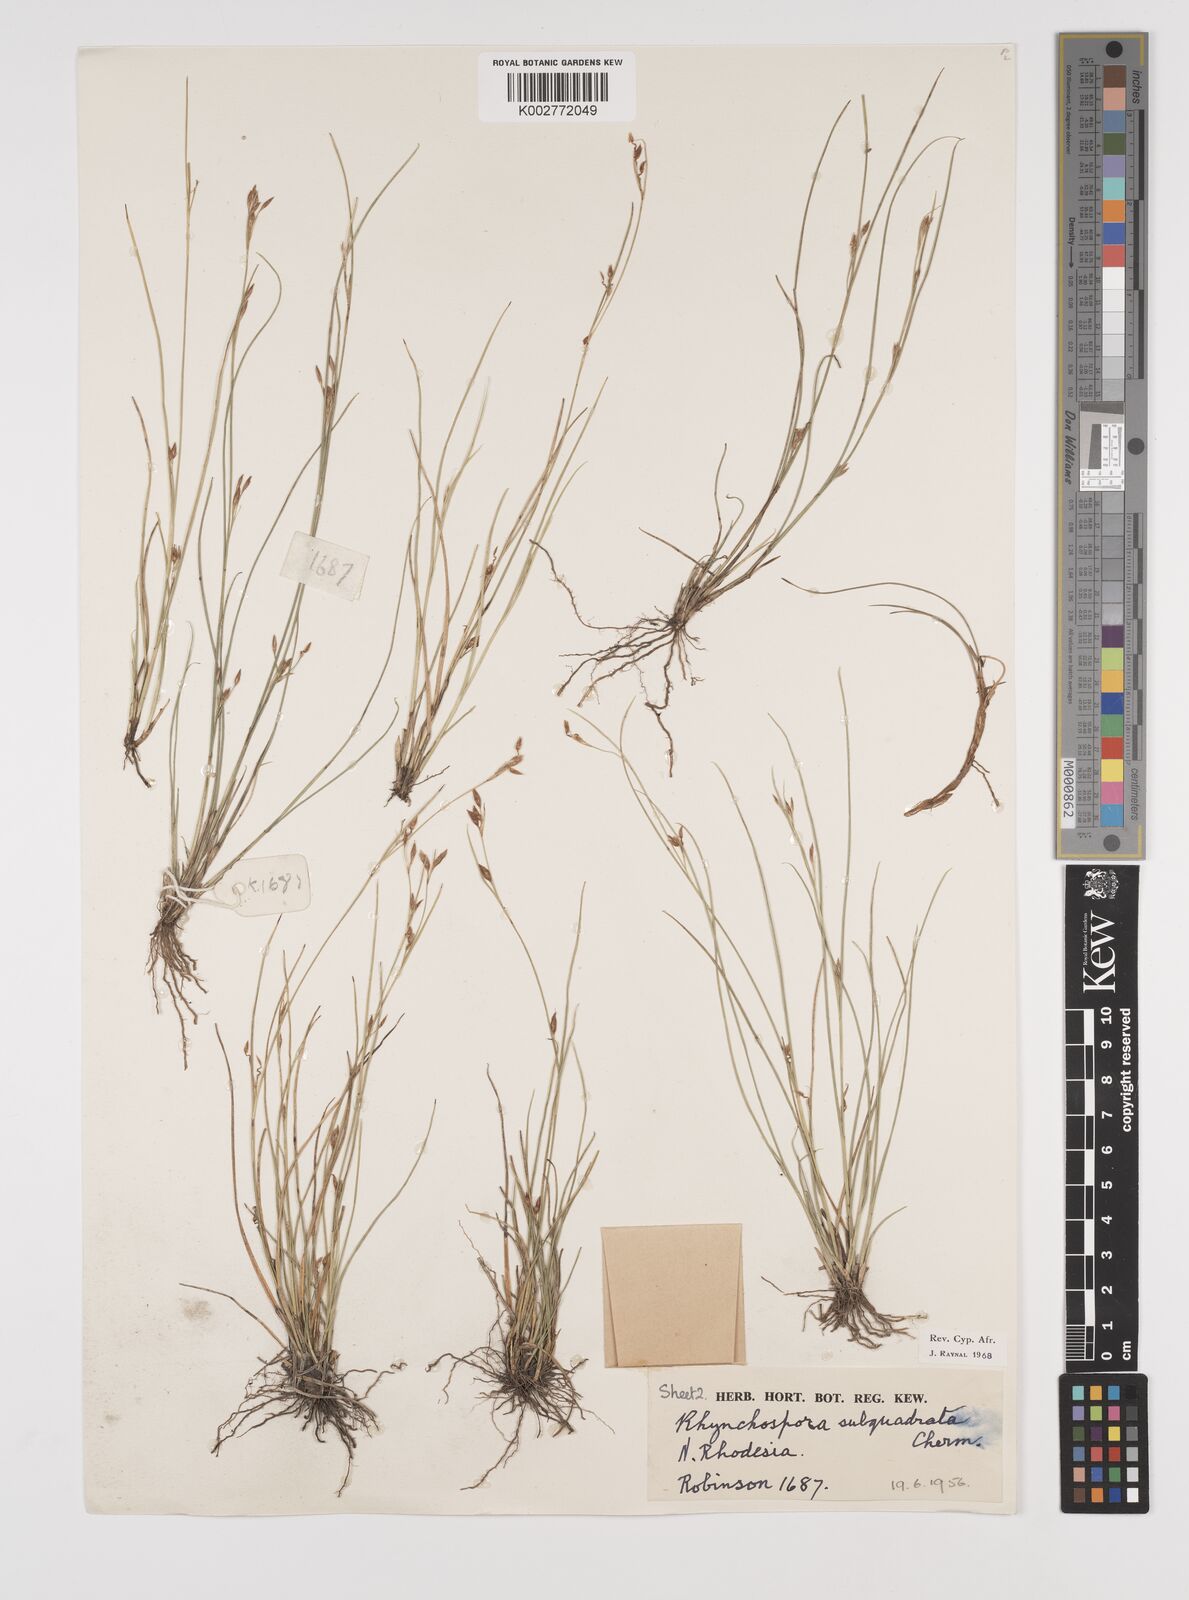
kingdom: Plantae
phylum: Tracheophyta
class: Liliopsida
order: Poales
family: Cyperaceae
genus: Rhynchospora
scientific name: Rhynchospora gracillima
